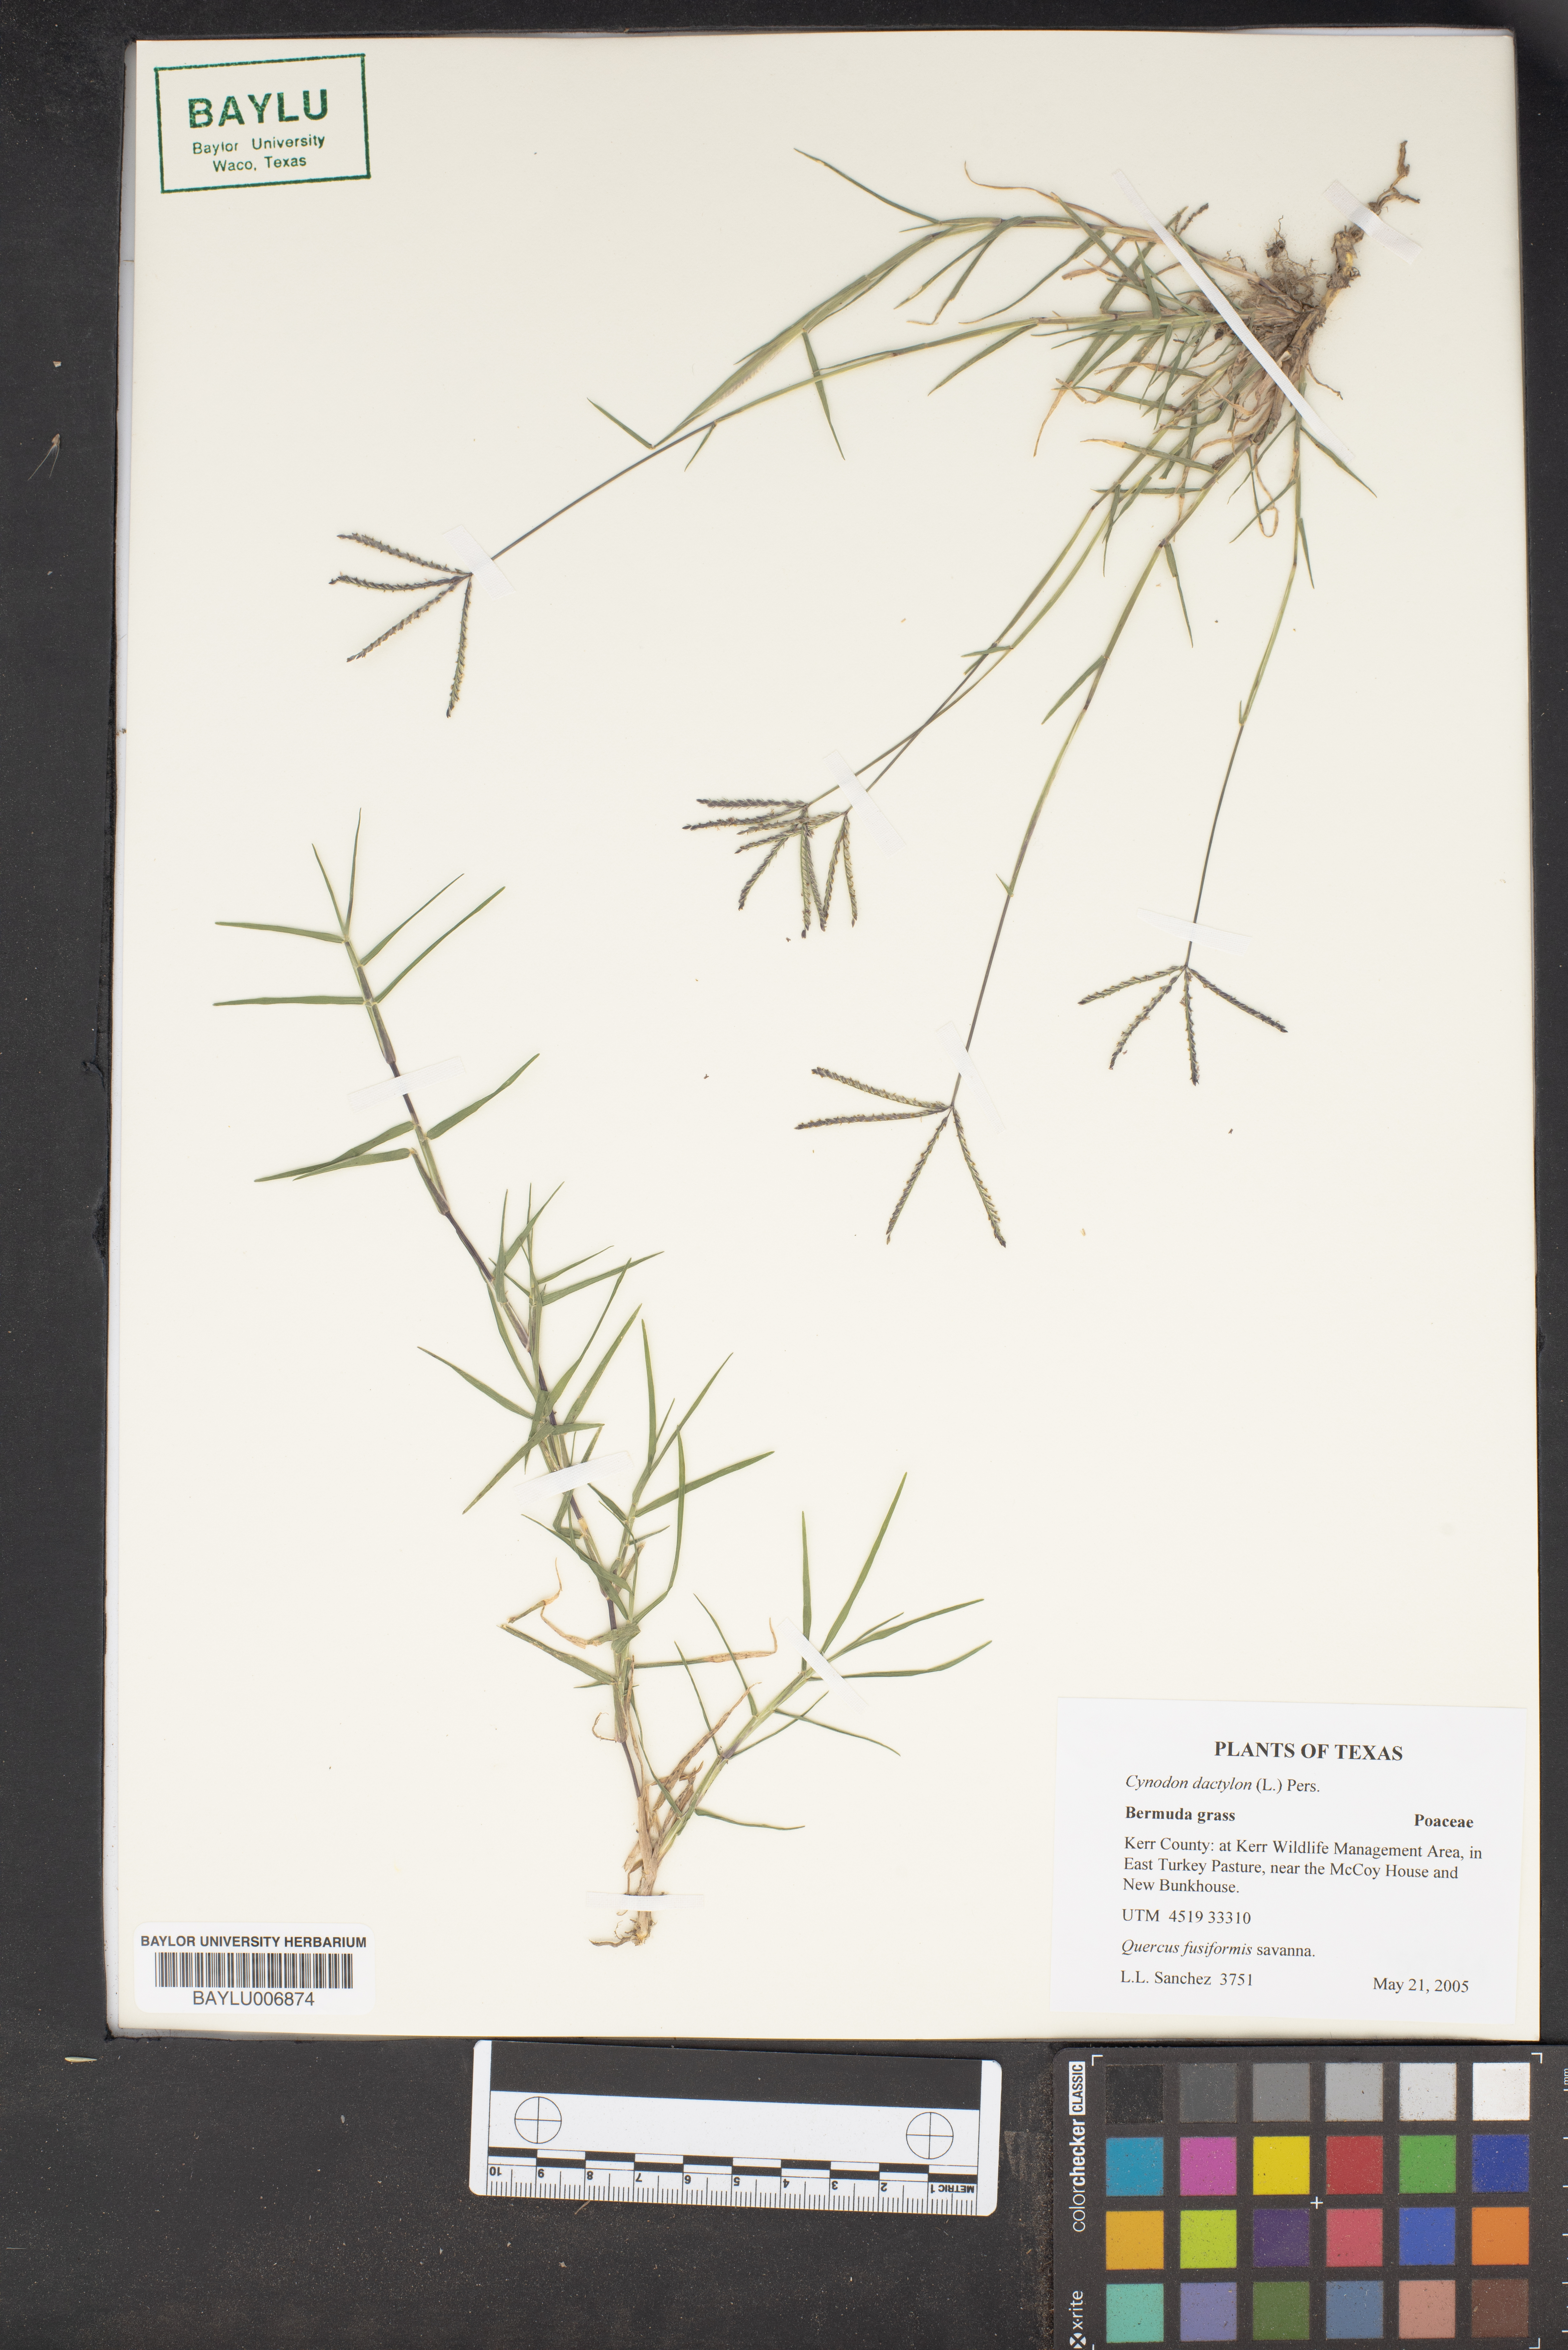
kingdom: Plantae
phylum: Tracheophyta
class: Liliopsida
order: Poales
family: Poaceae
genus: Cynodon
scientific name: Cynodon dactylon
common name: Bermuda grass
